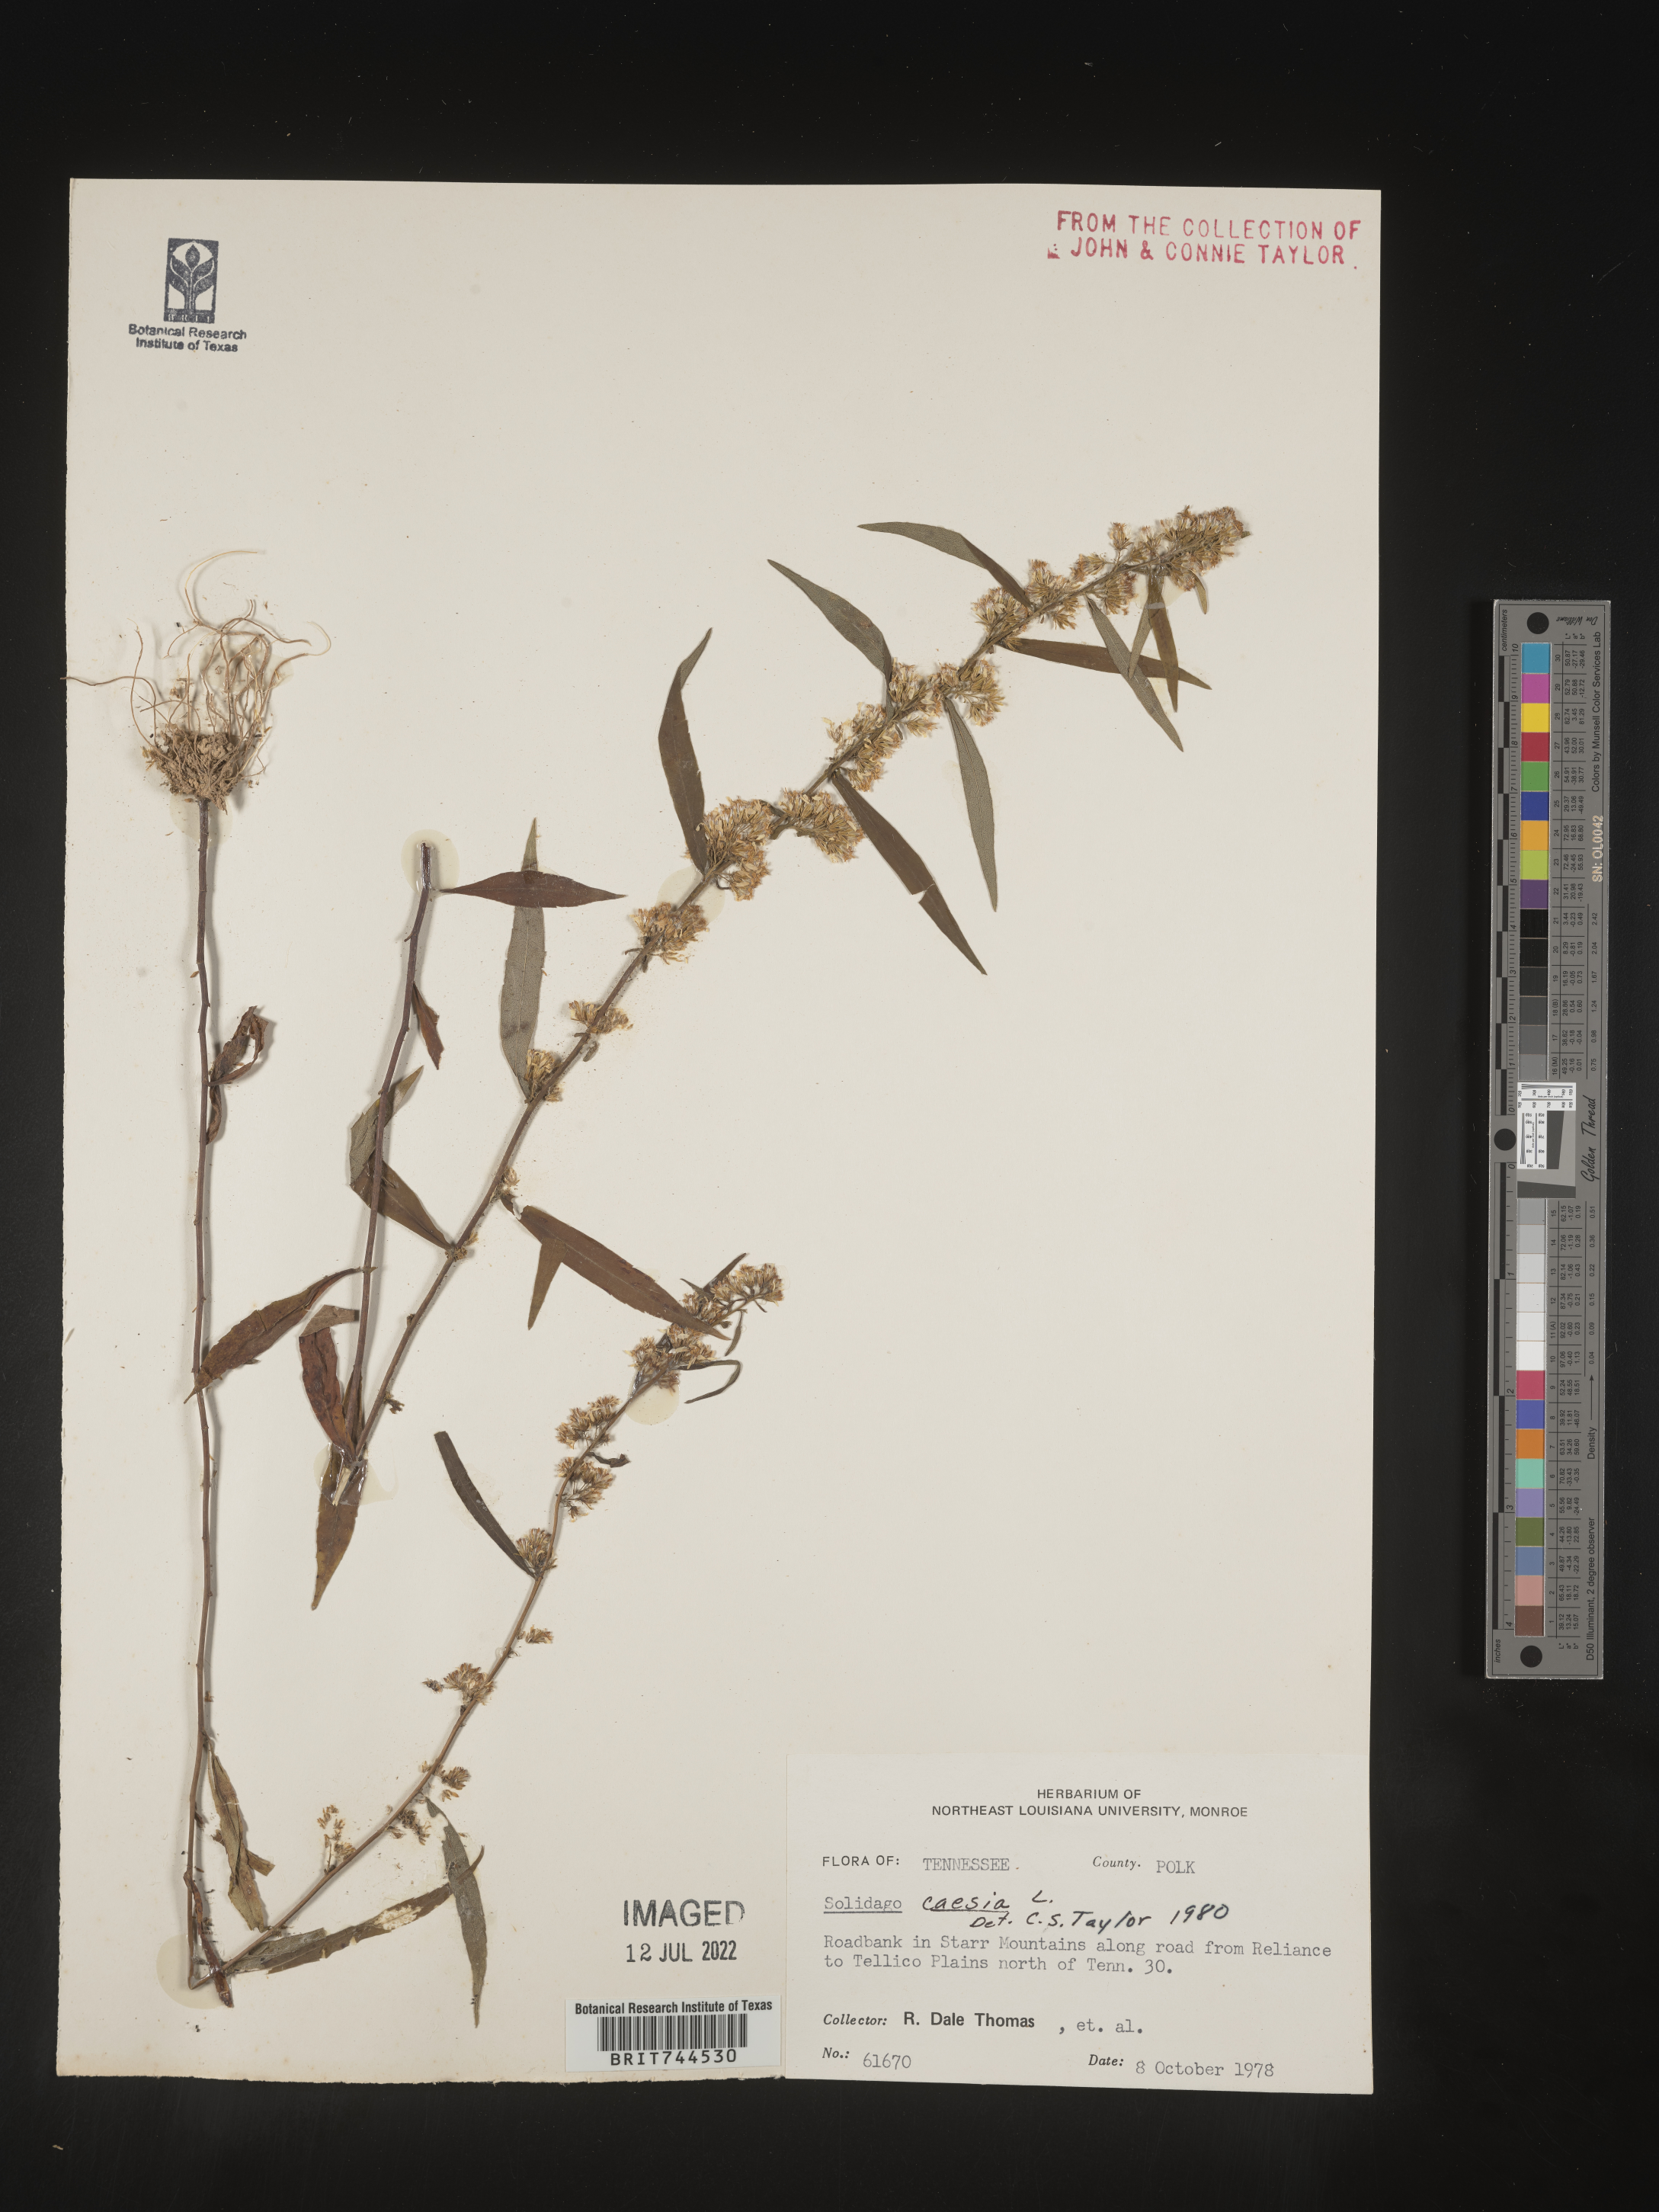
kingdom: Plantae
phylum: Tracheophyta
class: Magnoliopsida
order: Asterales
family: Asteraceae
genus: Solidago
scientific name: Solidago caesia
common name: Woodland goldenrod
